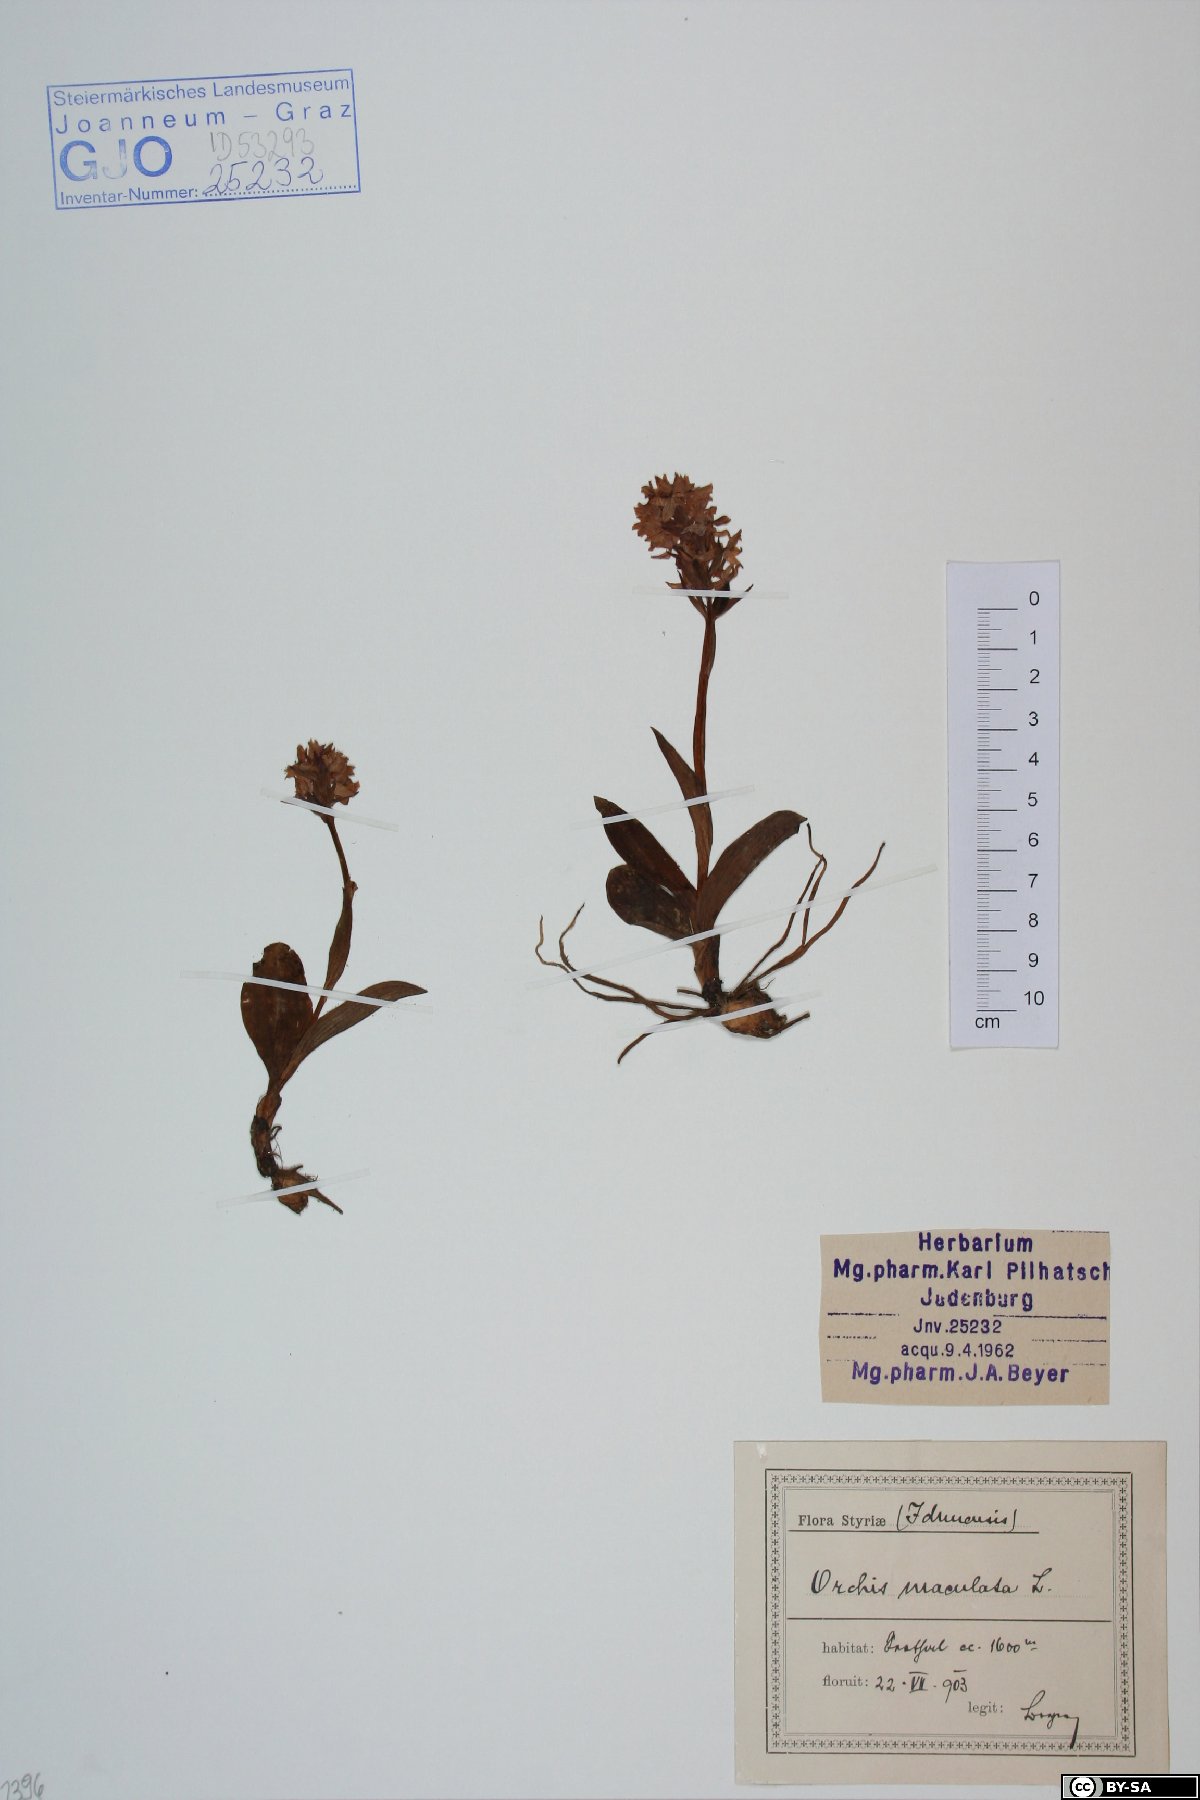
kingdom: Plantae
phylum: Tracheophyta
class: Liliopsida
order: Asparagales
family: Orchidaceae
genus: Dactylorhiza
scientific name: Dactylorhiza maculata
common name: Heath spotted-orchid
